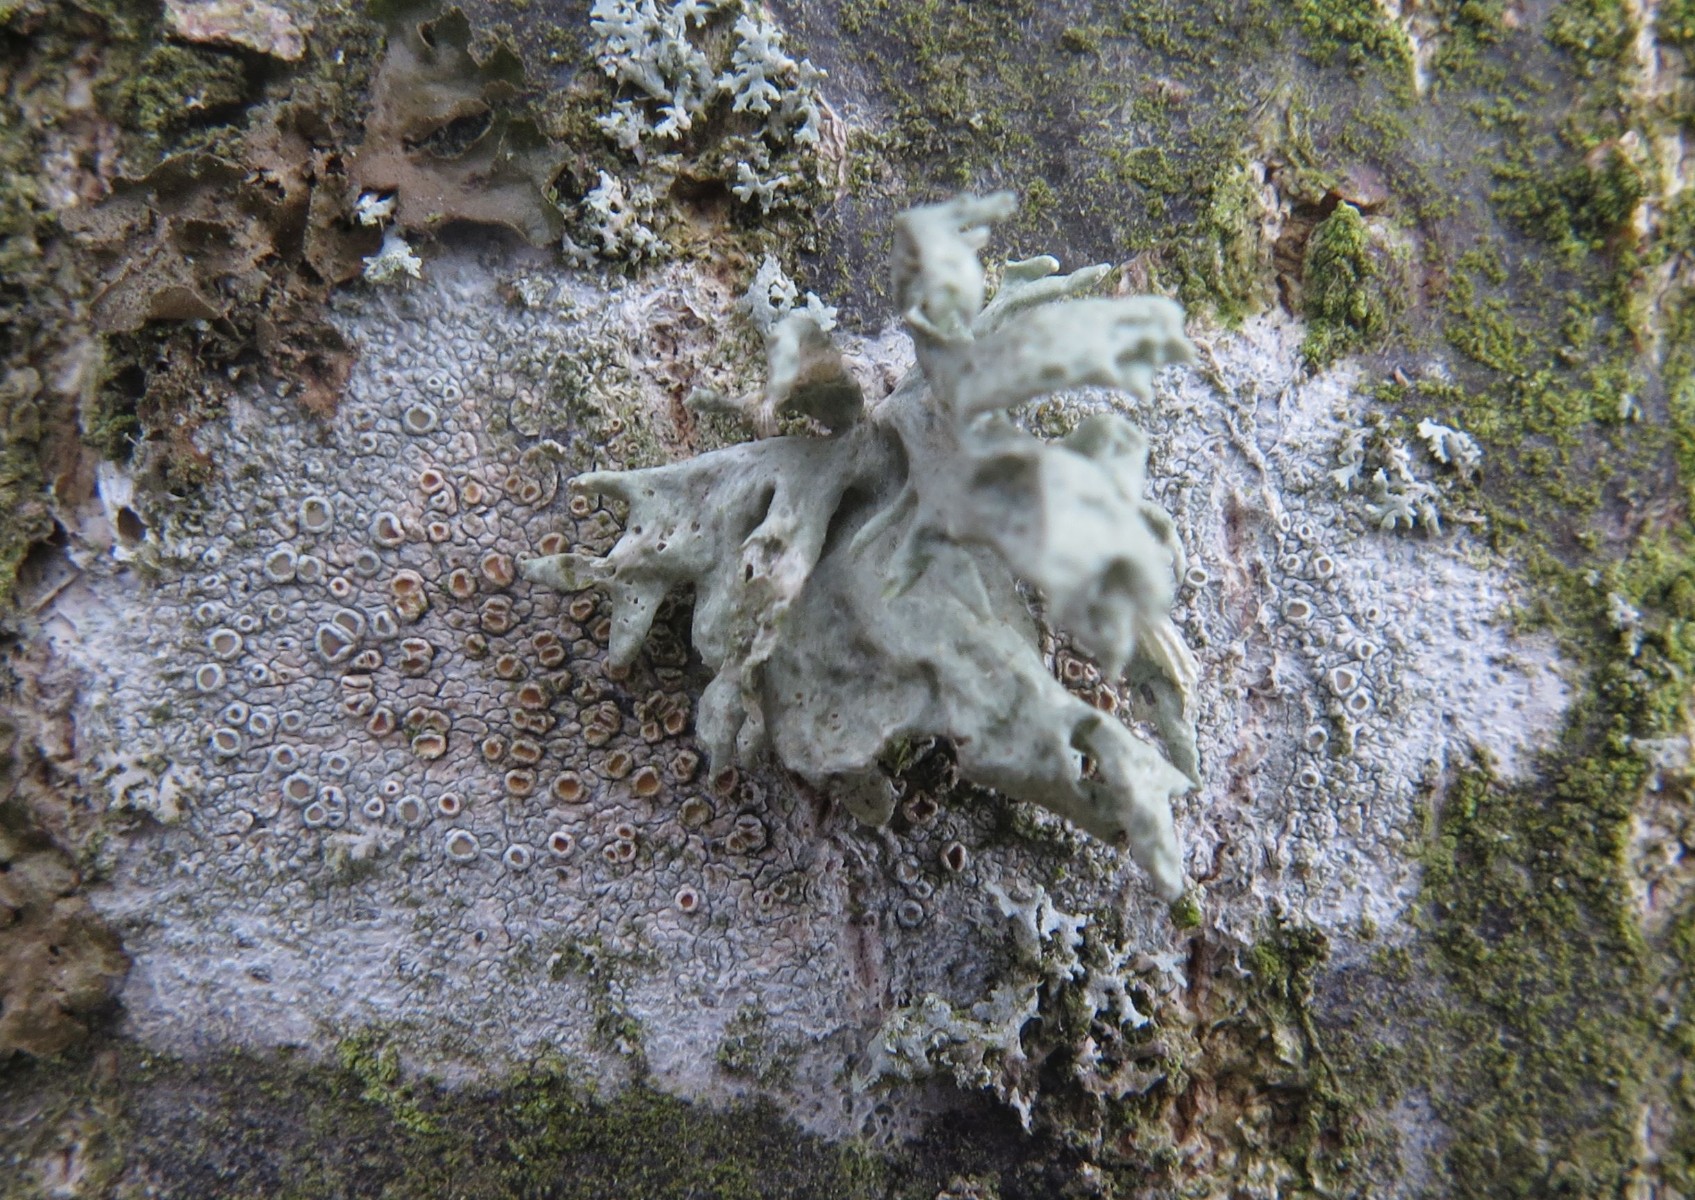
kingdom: Fungi
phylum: Ascomycota
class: Lecanoromycetes
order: Lecanorales
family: Lecanoraceae
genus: Lecanora
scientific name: Lecanora chlarotera
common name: brun kantskivelav
